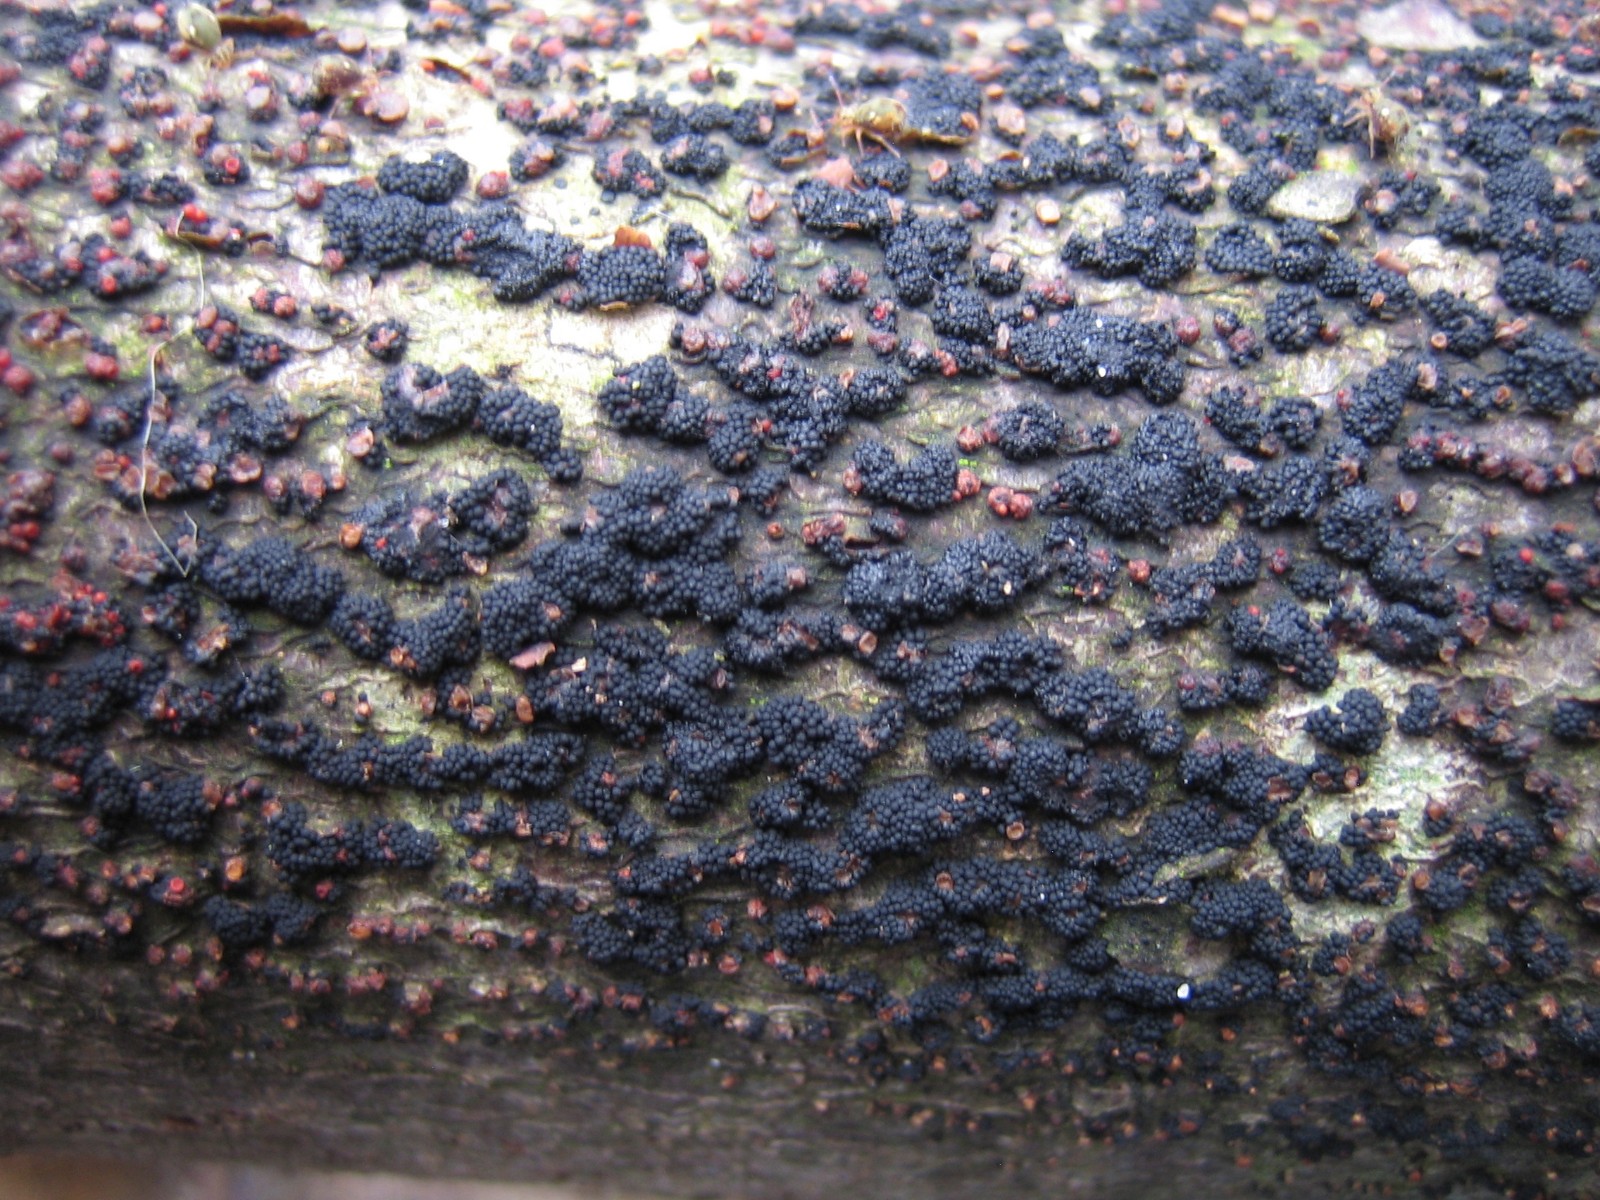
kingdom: Fungi
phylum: Ascomycota
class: Sordariomycetes
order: Hypocreales
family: Nectriaceae
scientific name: Nectriaceae
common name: cinnobersvampfamilien
